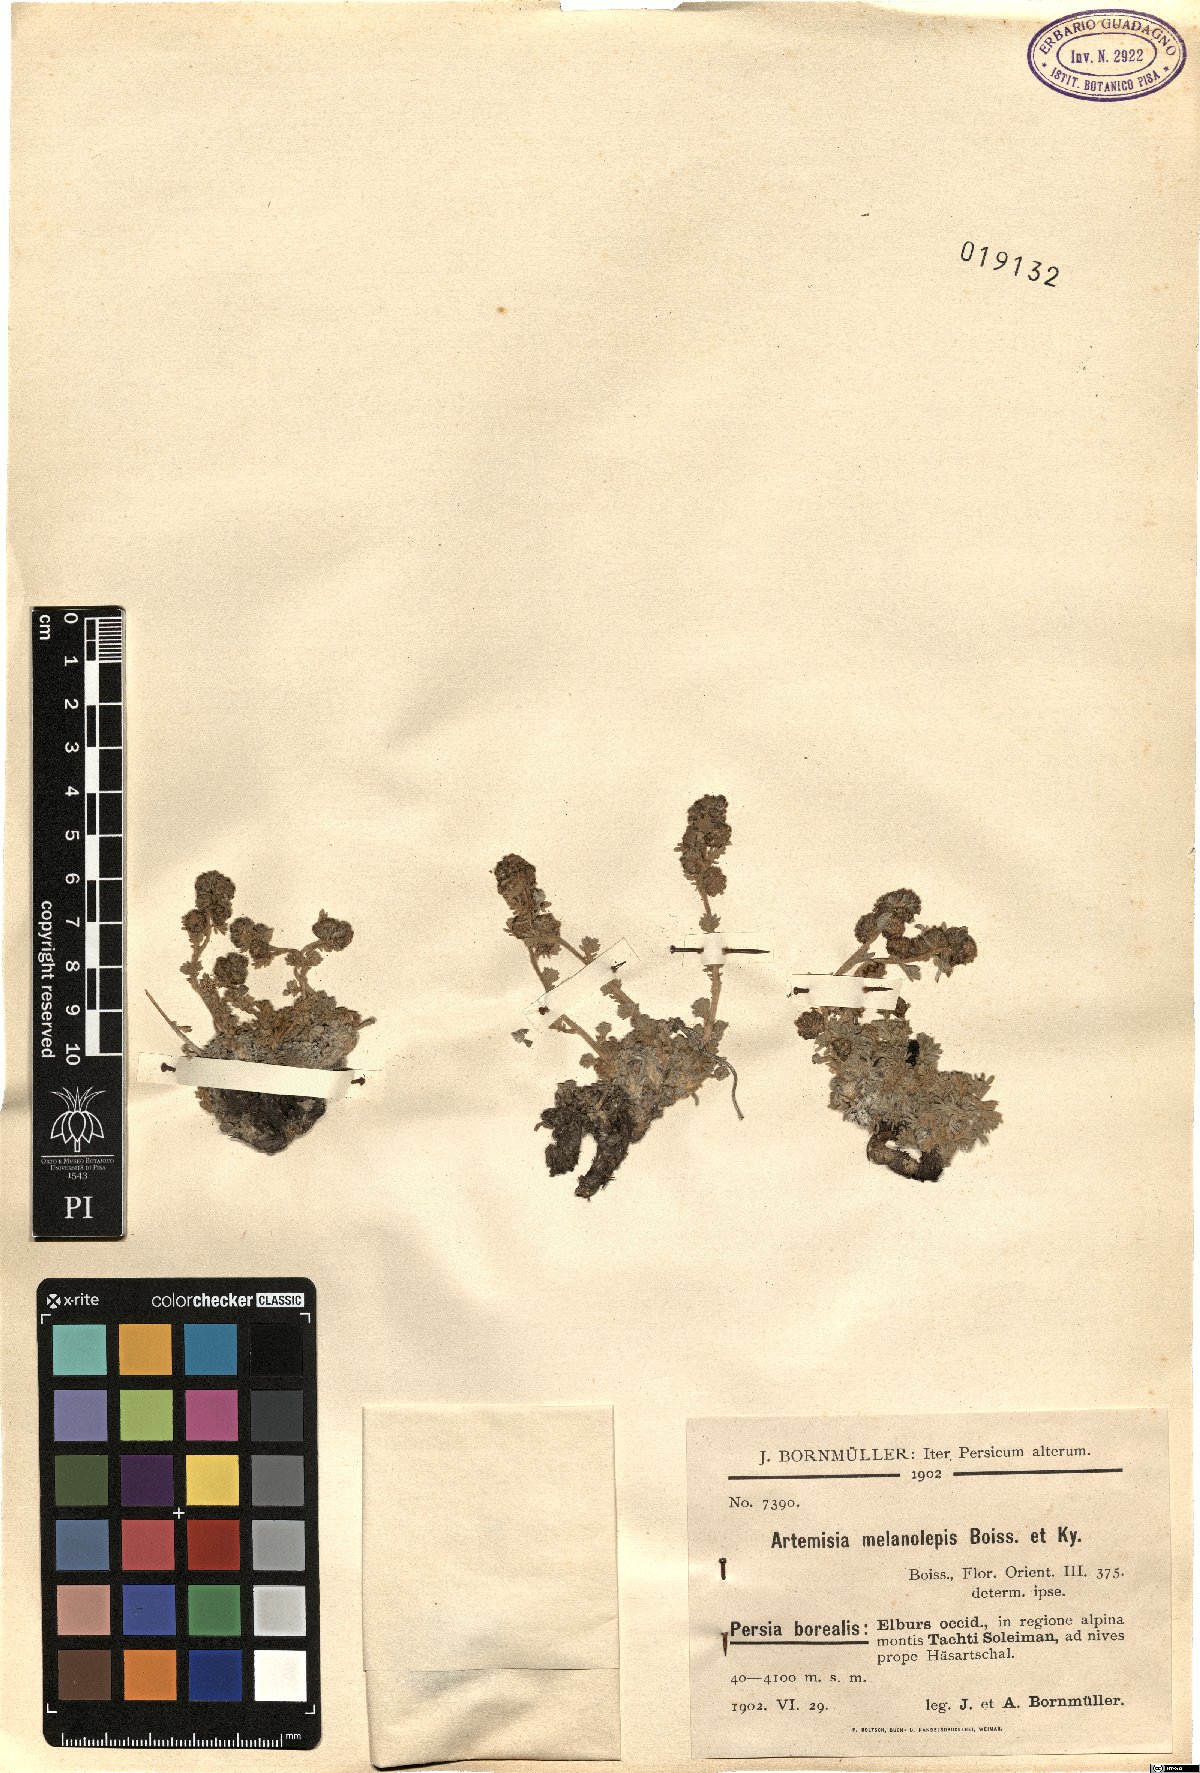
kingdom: Plantae
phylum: Tracheophyta
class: Magnoliopsida
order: Asterales
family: Asteraceae
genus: Artemisia
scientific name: Artemisia melanolepis
